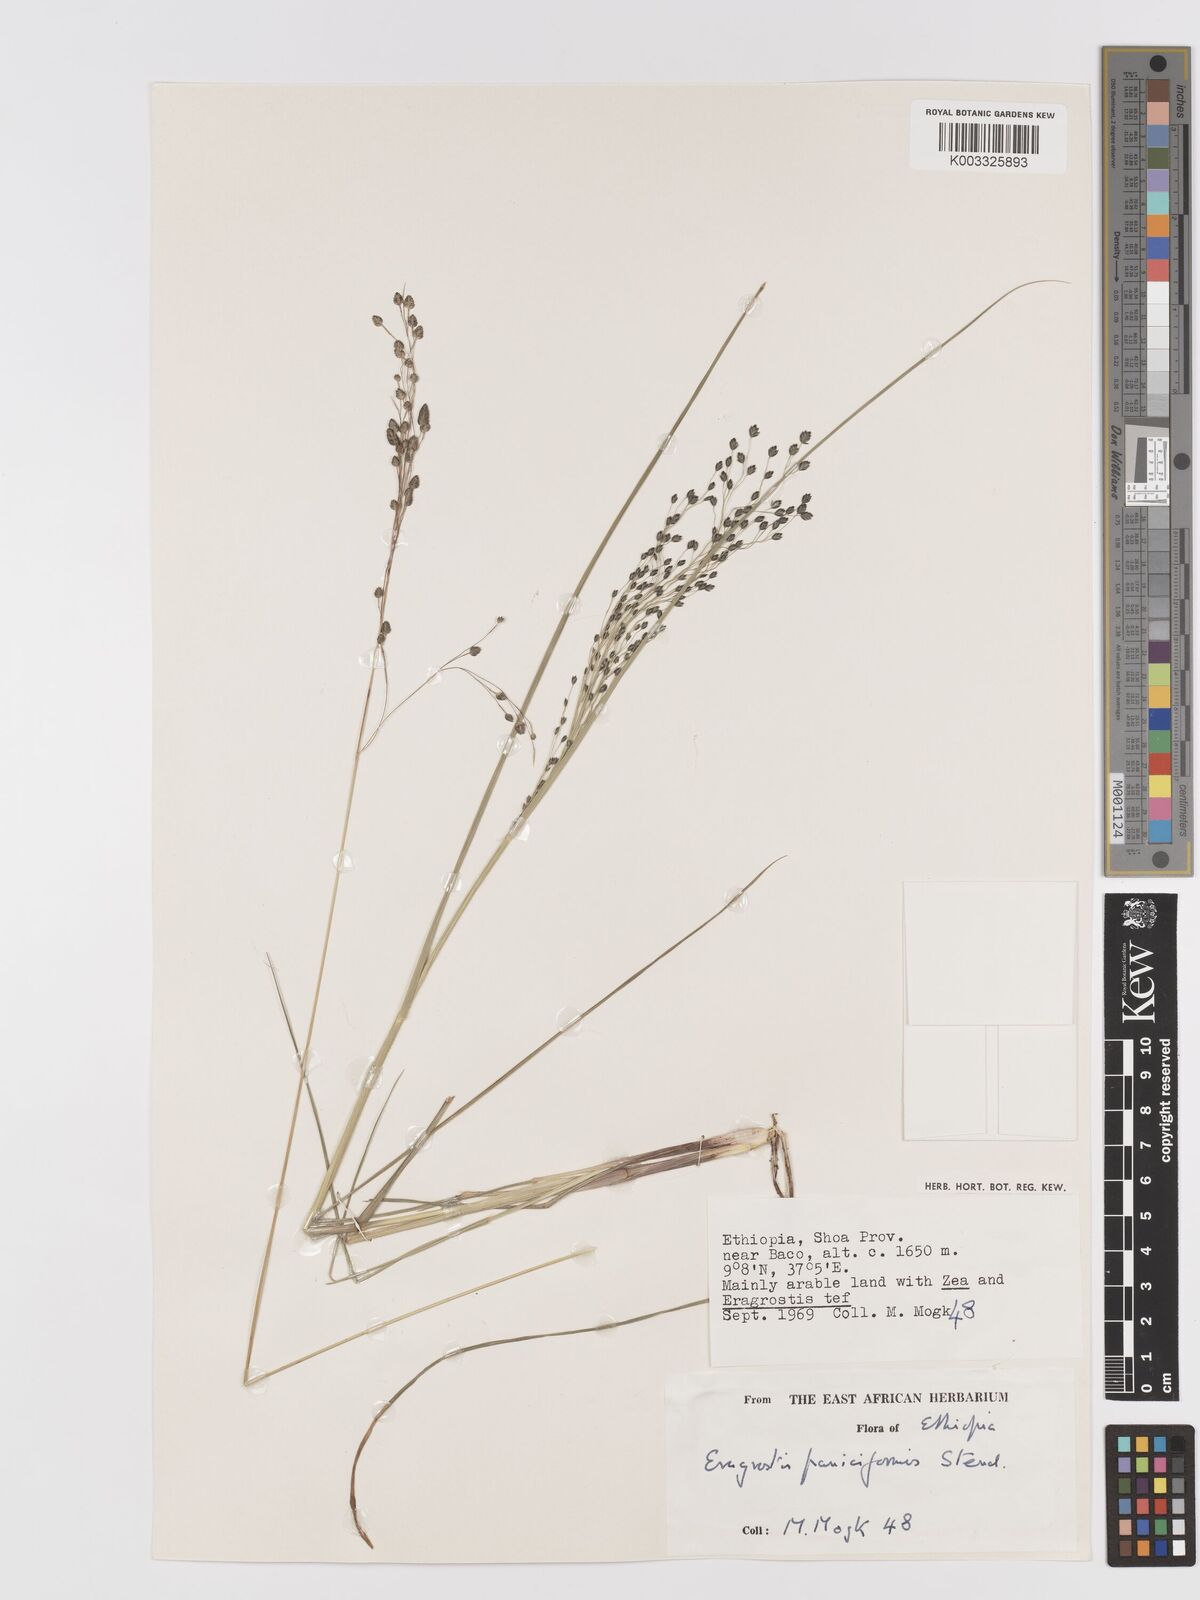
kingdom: Plantae
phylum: Tracheophyta
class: Liliopsida
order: Poales
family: Poaceae
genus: Eragrostis
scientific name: Eragrostis paniciformis
